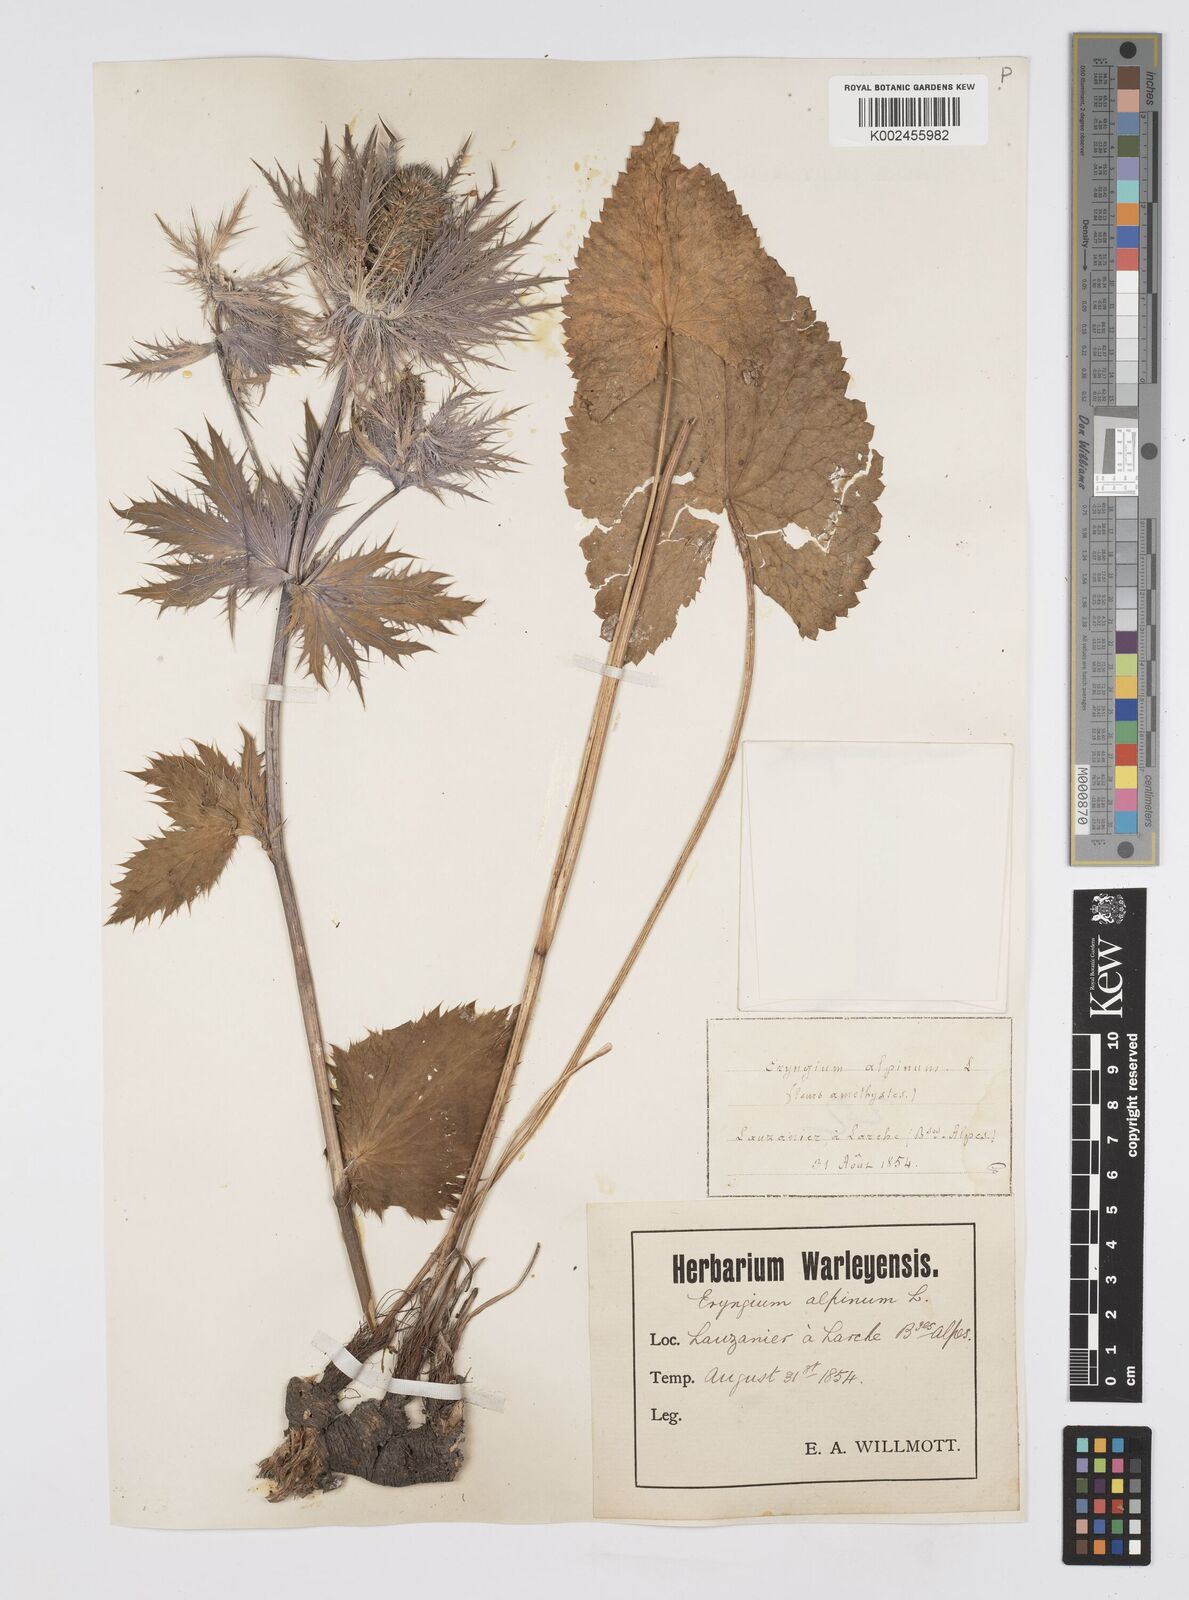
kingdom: Plantae
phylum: Tracheophyta
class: Magnoliopsida
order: Apiales
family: Apiaceae
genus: Eryngium
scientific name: Eryngium alpinum
